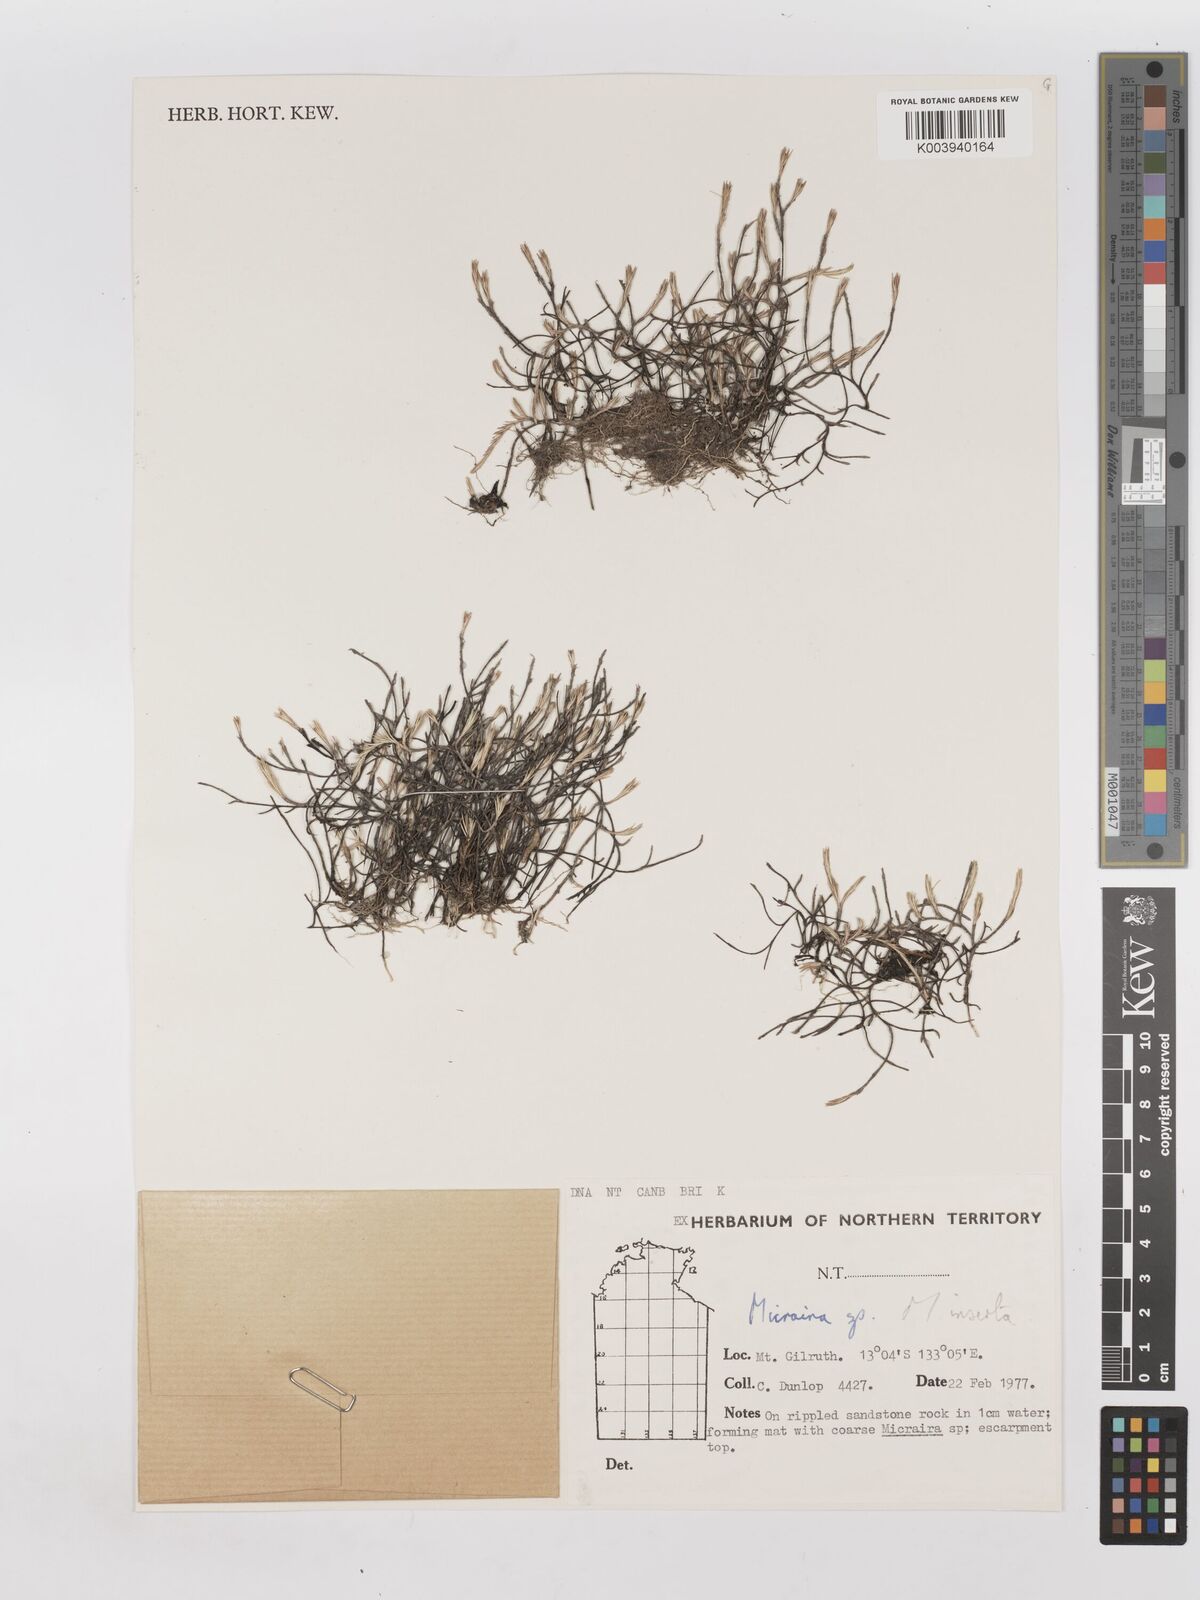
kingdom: Plantae
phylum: Tracheophyta
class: Liliopsida
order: Poales
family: Poaceae
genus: Micraira
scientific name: Micraira inserta
